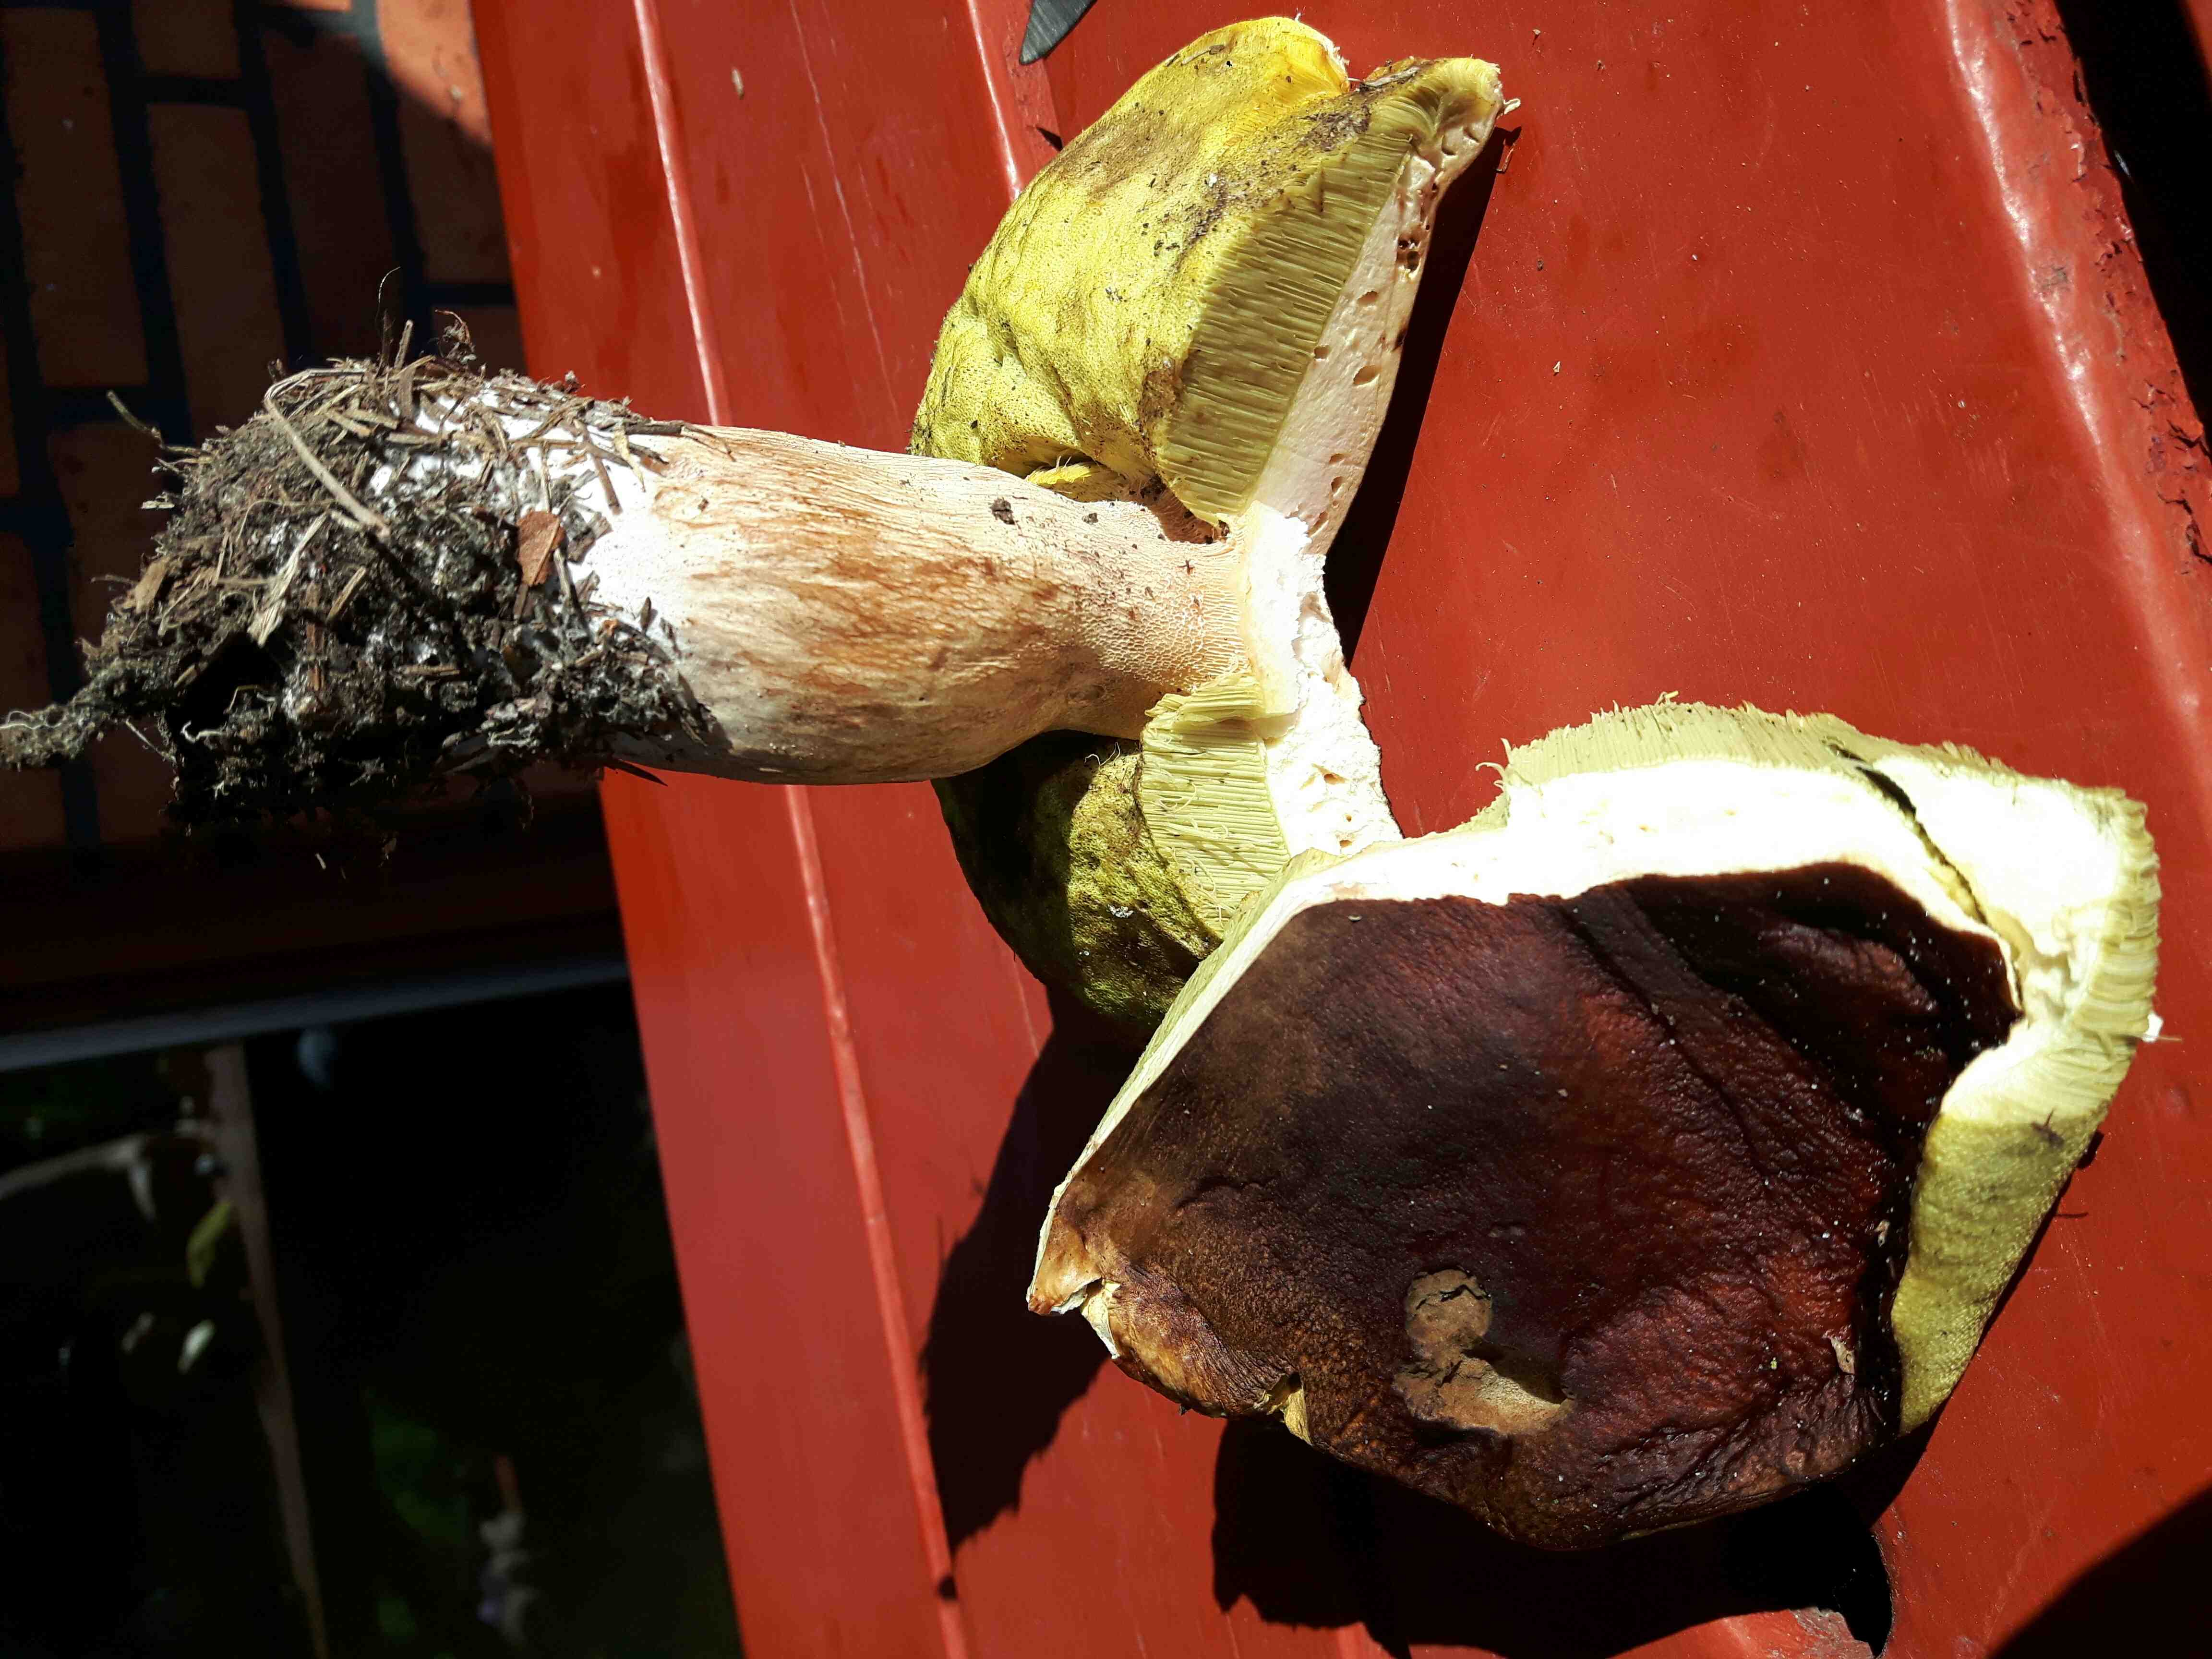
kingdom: Fungi
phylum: Basidiomycota
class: Agaricomycetes
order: Boletales
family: Boletaceae
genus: Boletus
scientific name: Boletus edulis
